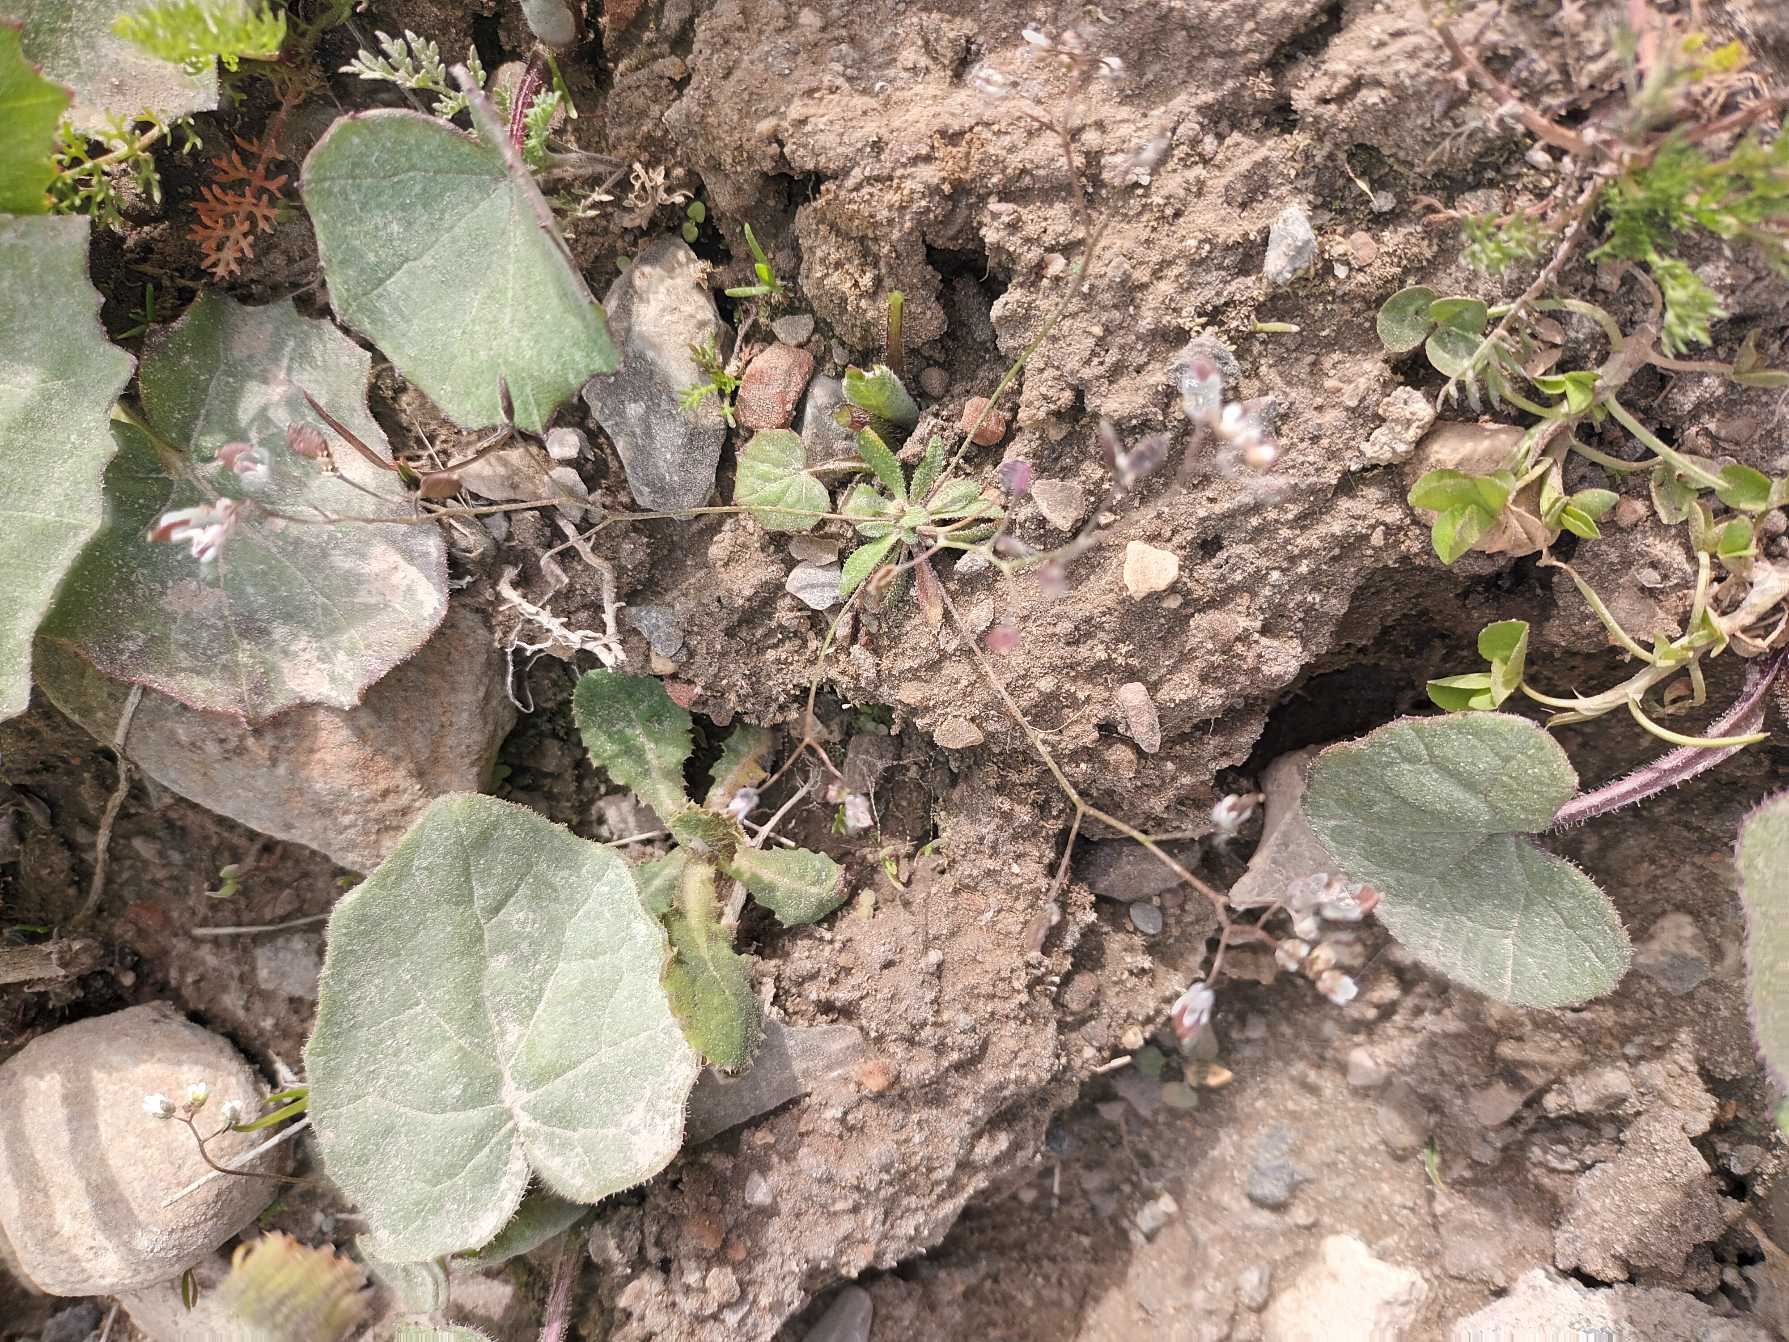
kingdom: Plantae
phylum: Tracheophyta
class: Magnoliopsida
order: Brassicales
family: Brassicaceae
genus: Draba
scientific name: Draba verna
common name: Vår-gæslingeblomst
